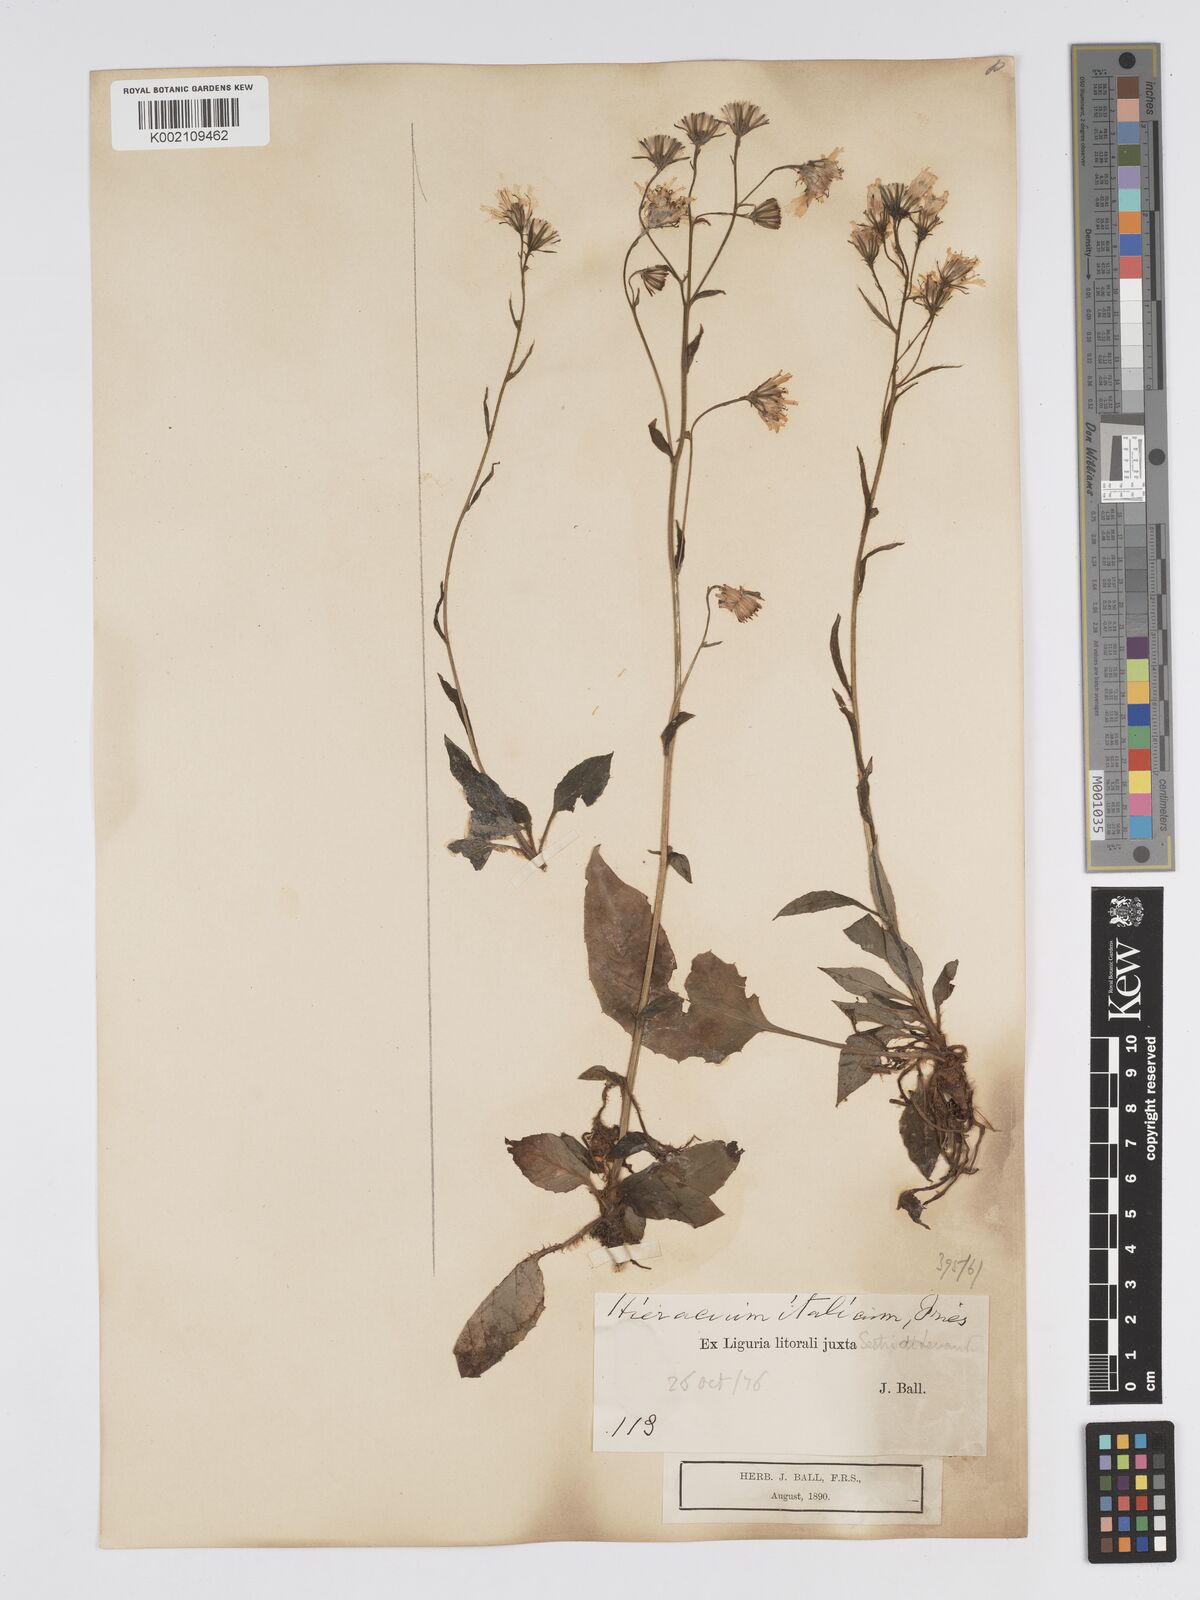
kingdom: Plantae
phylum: Tracheophyta
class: Magnoliopsida
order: Asterales
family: Asteraceae
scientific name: Asteraceae
